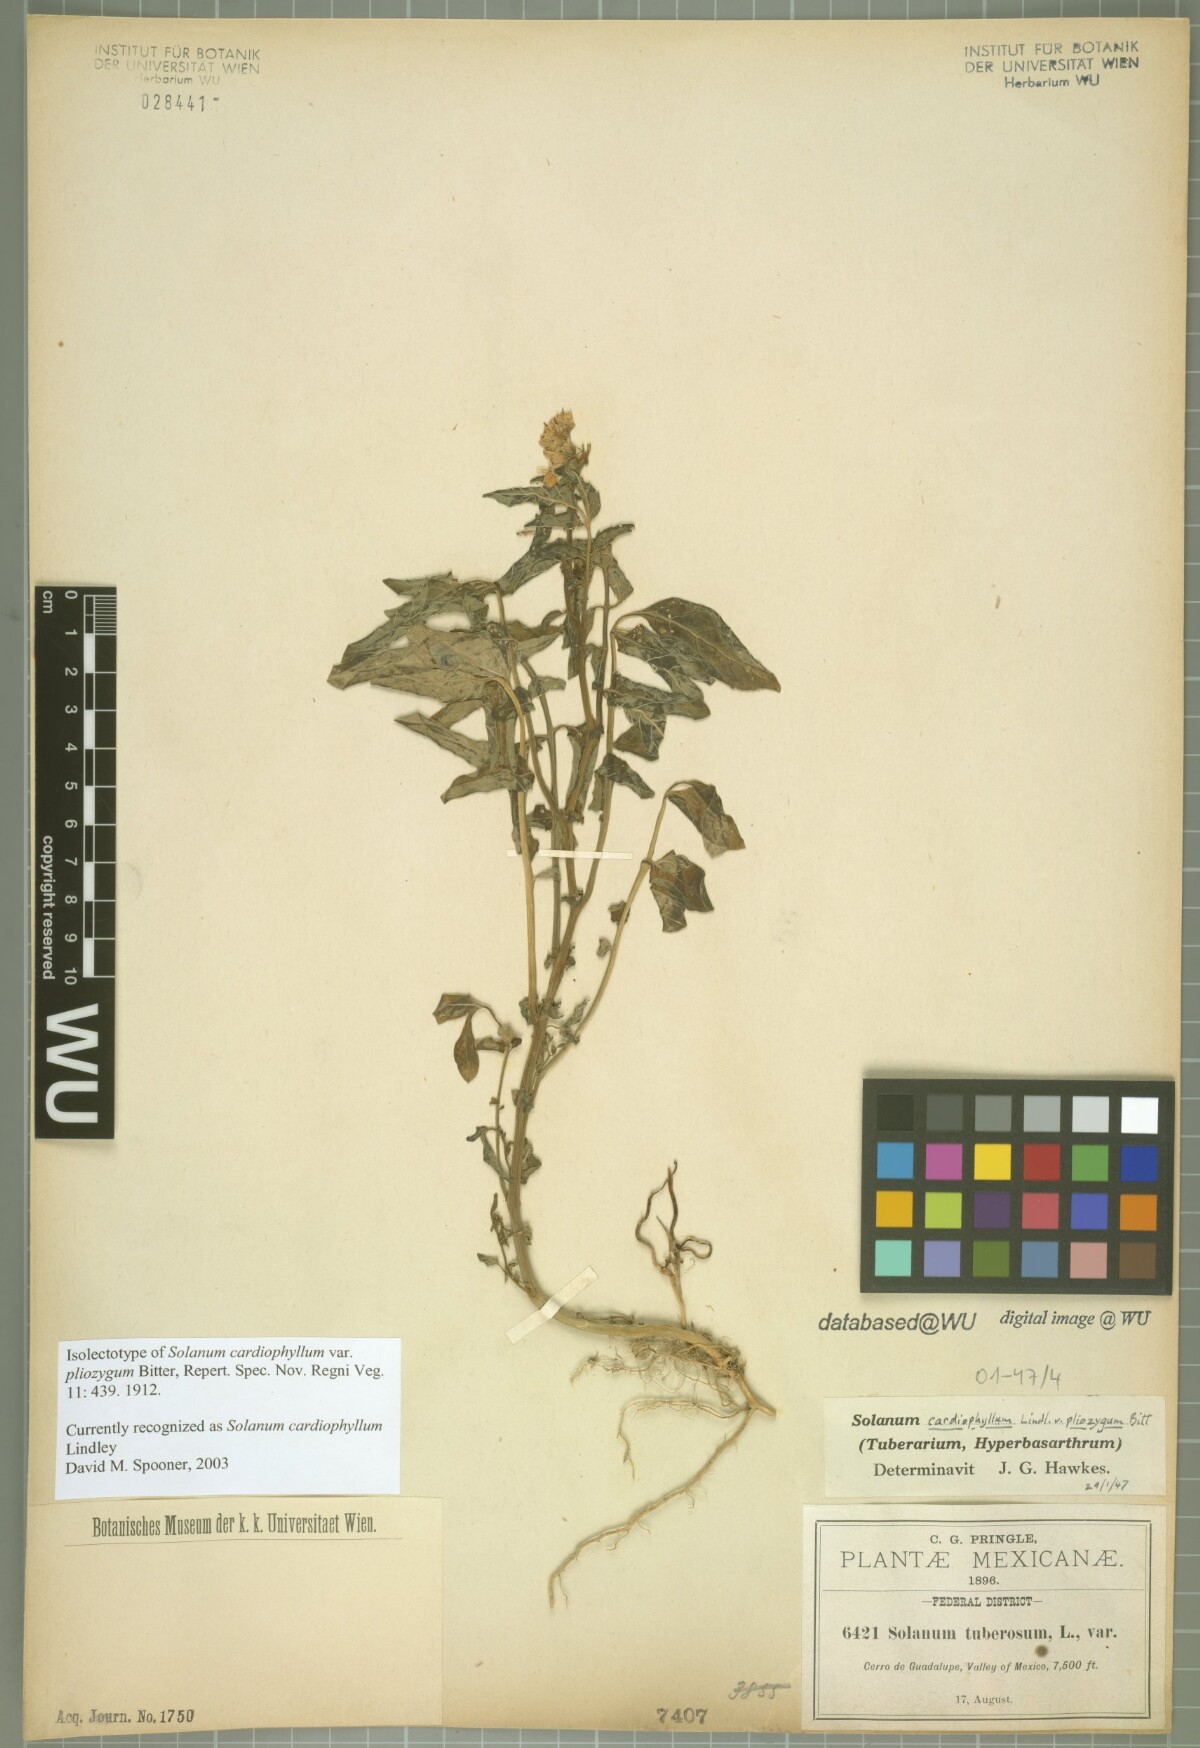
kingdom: Plantae
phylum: Tracheophyta
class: Magnoliopsida
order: Solanales
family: Solanaceae
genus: Solanum
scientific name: Solanum cardiophyllum
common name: Heartleaf horsenettle
